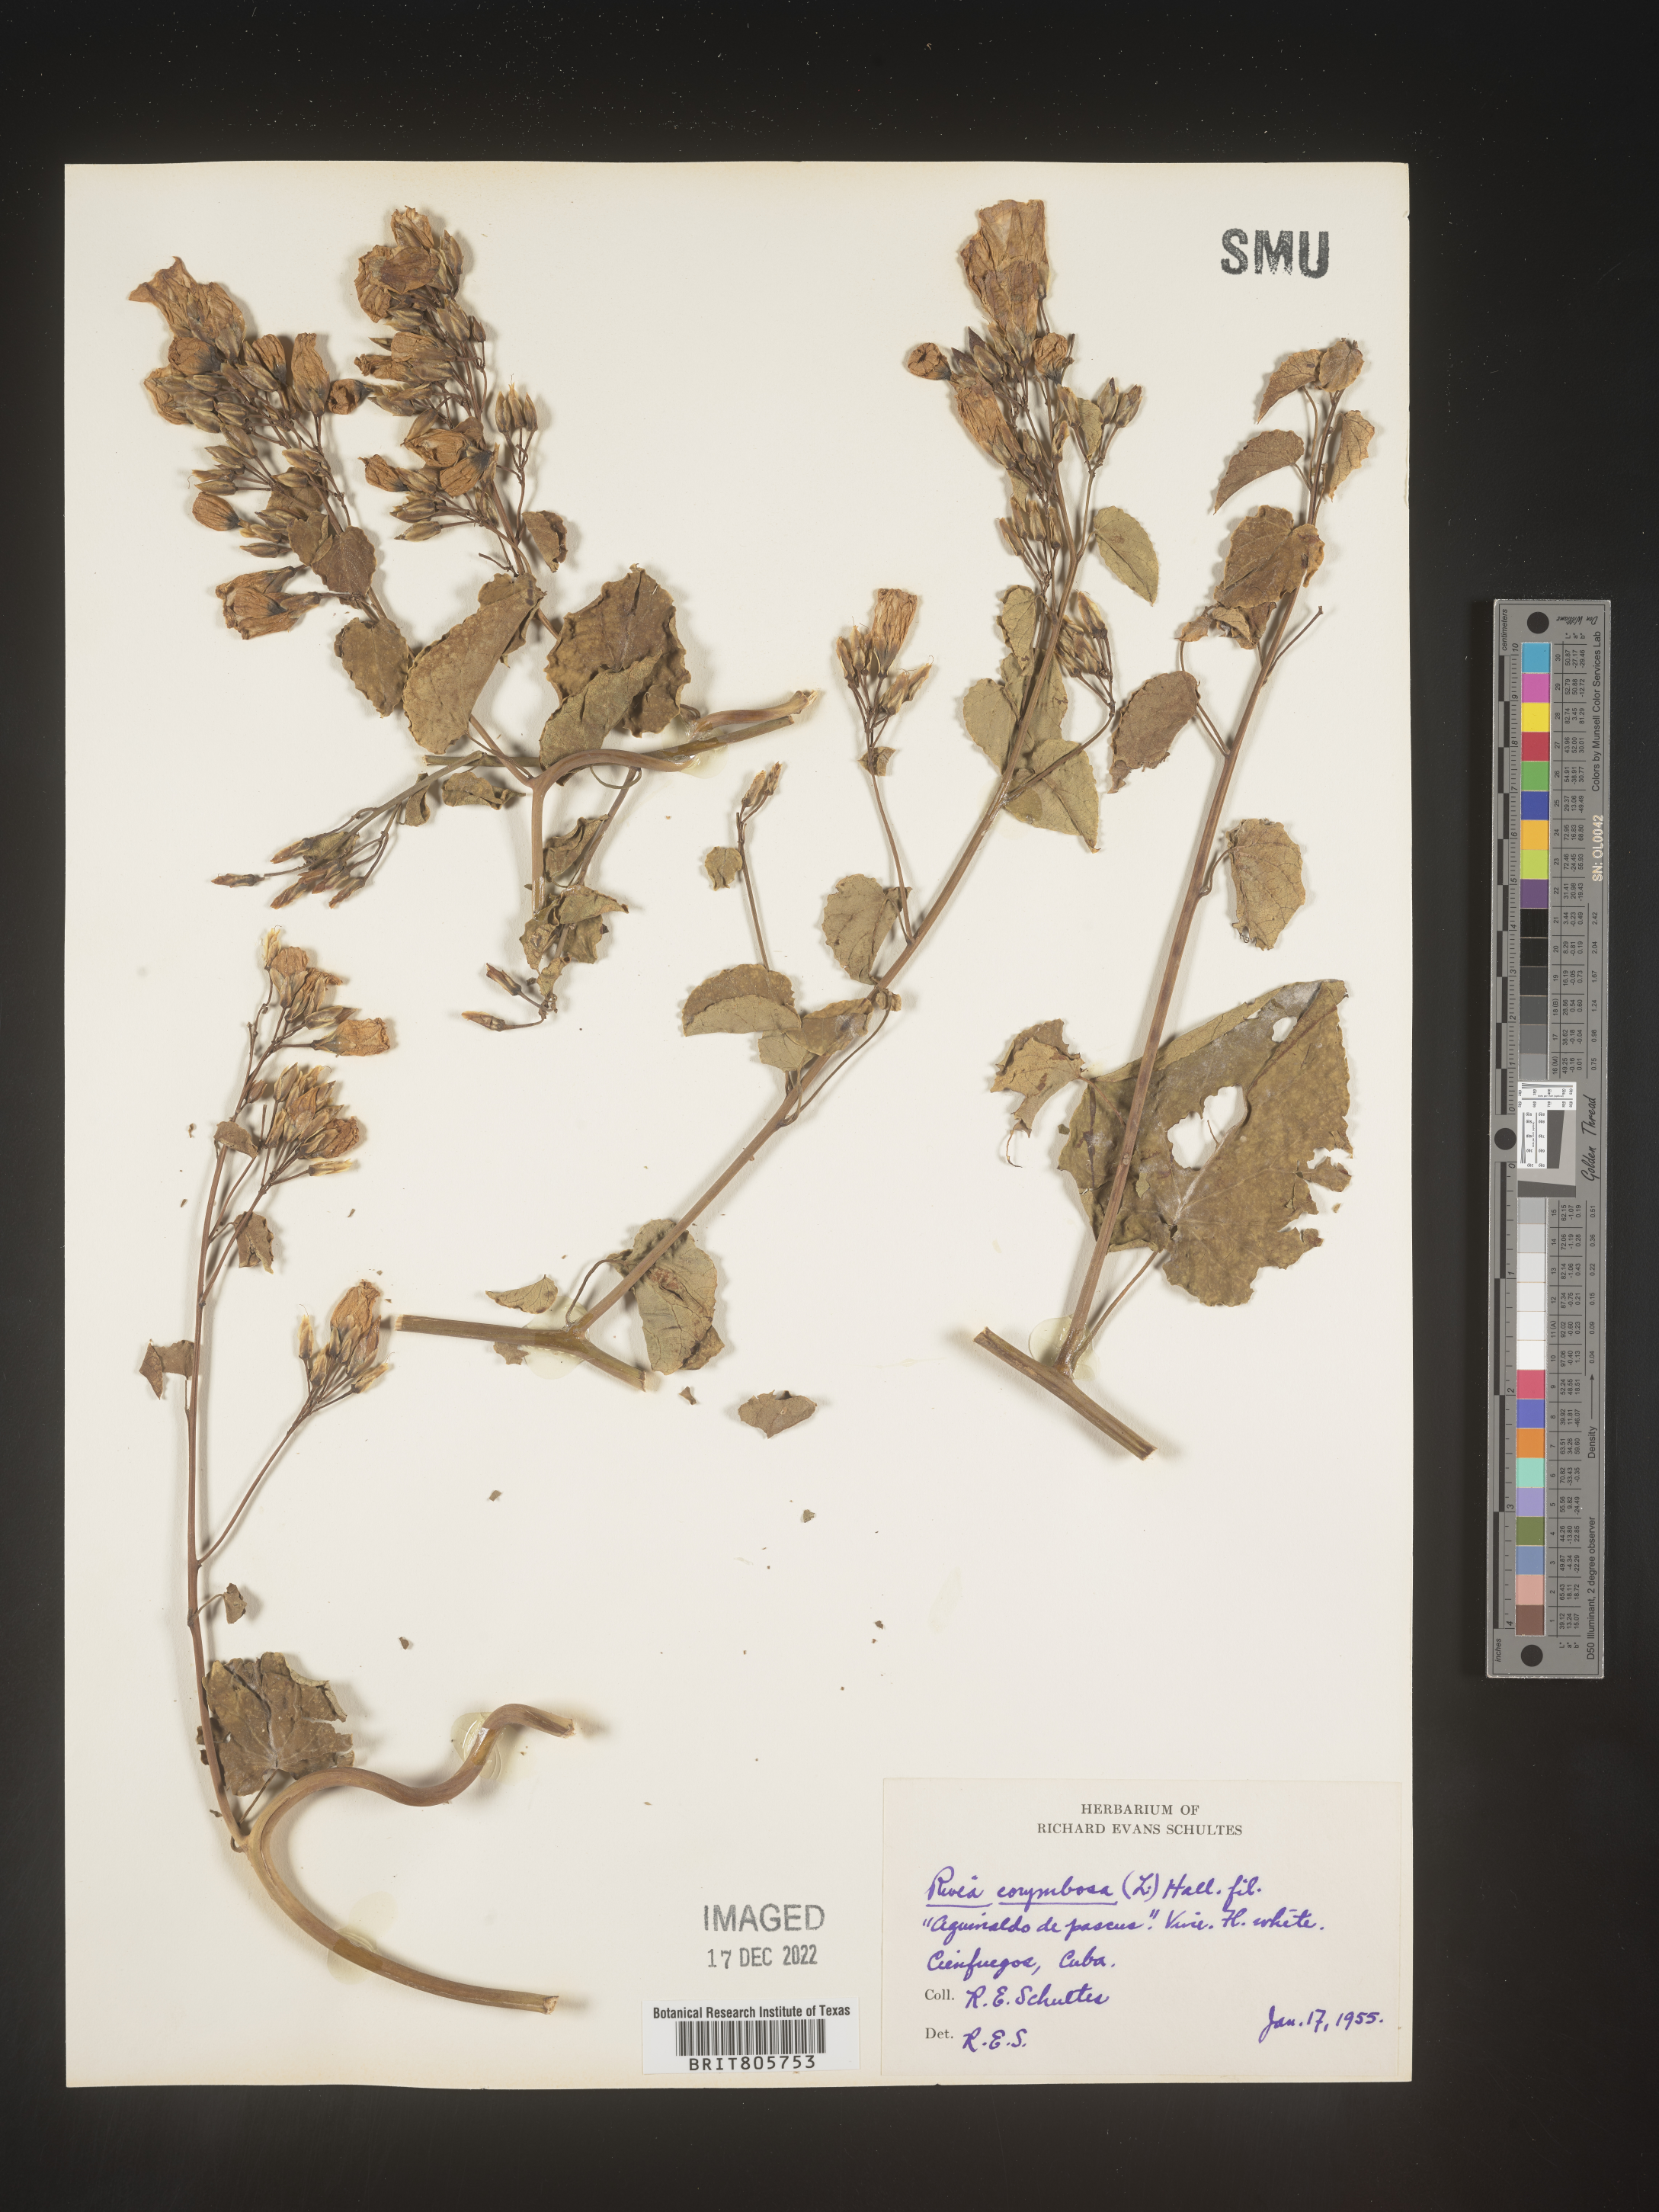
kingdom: Plantae
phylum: Tracheophyta
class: Magnoliopsida
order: Solanales
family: Convolvulaceae
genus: Rivea
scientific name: Rivea
